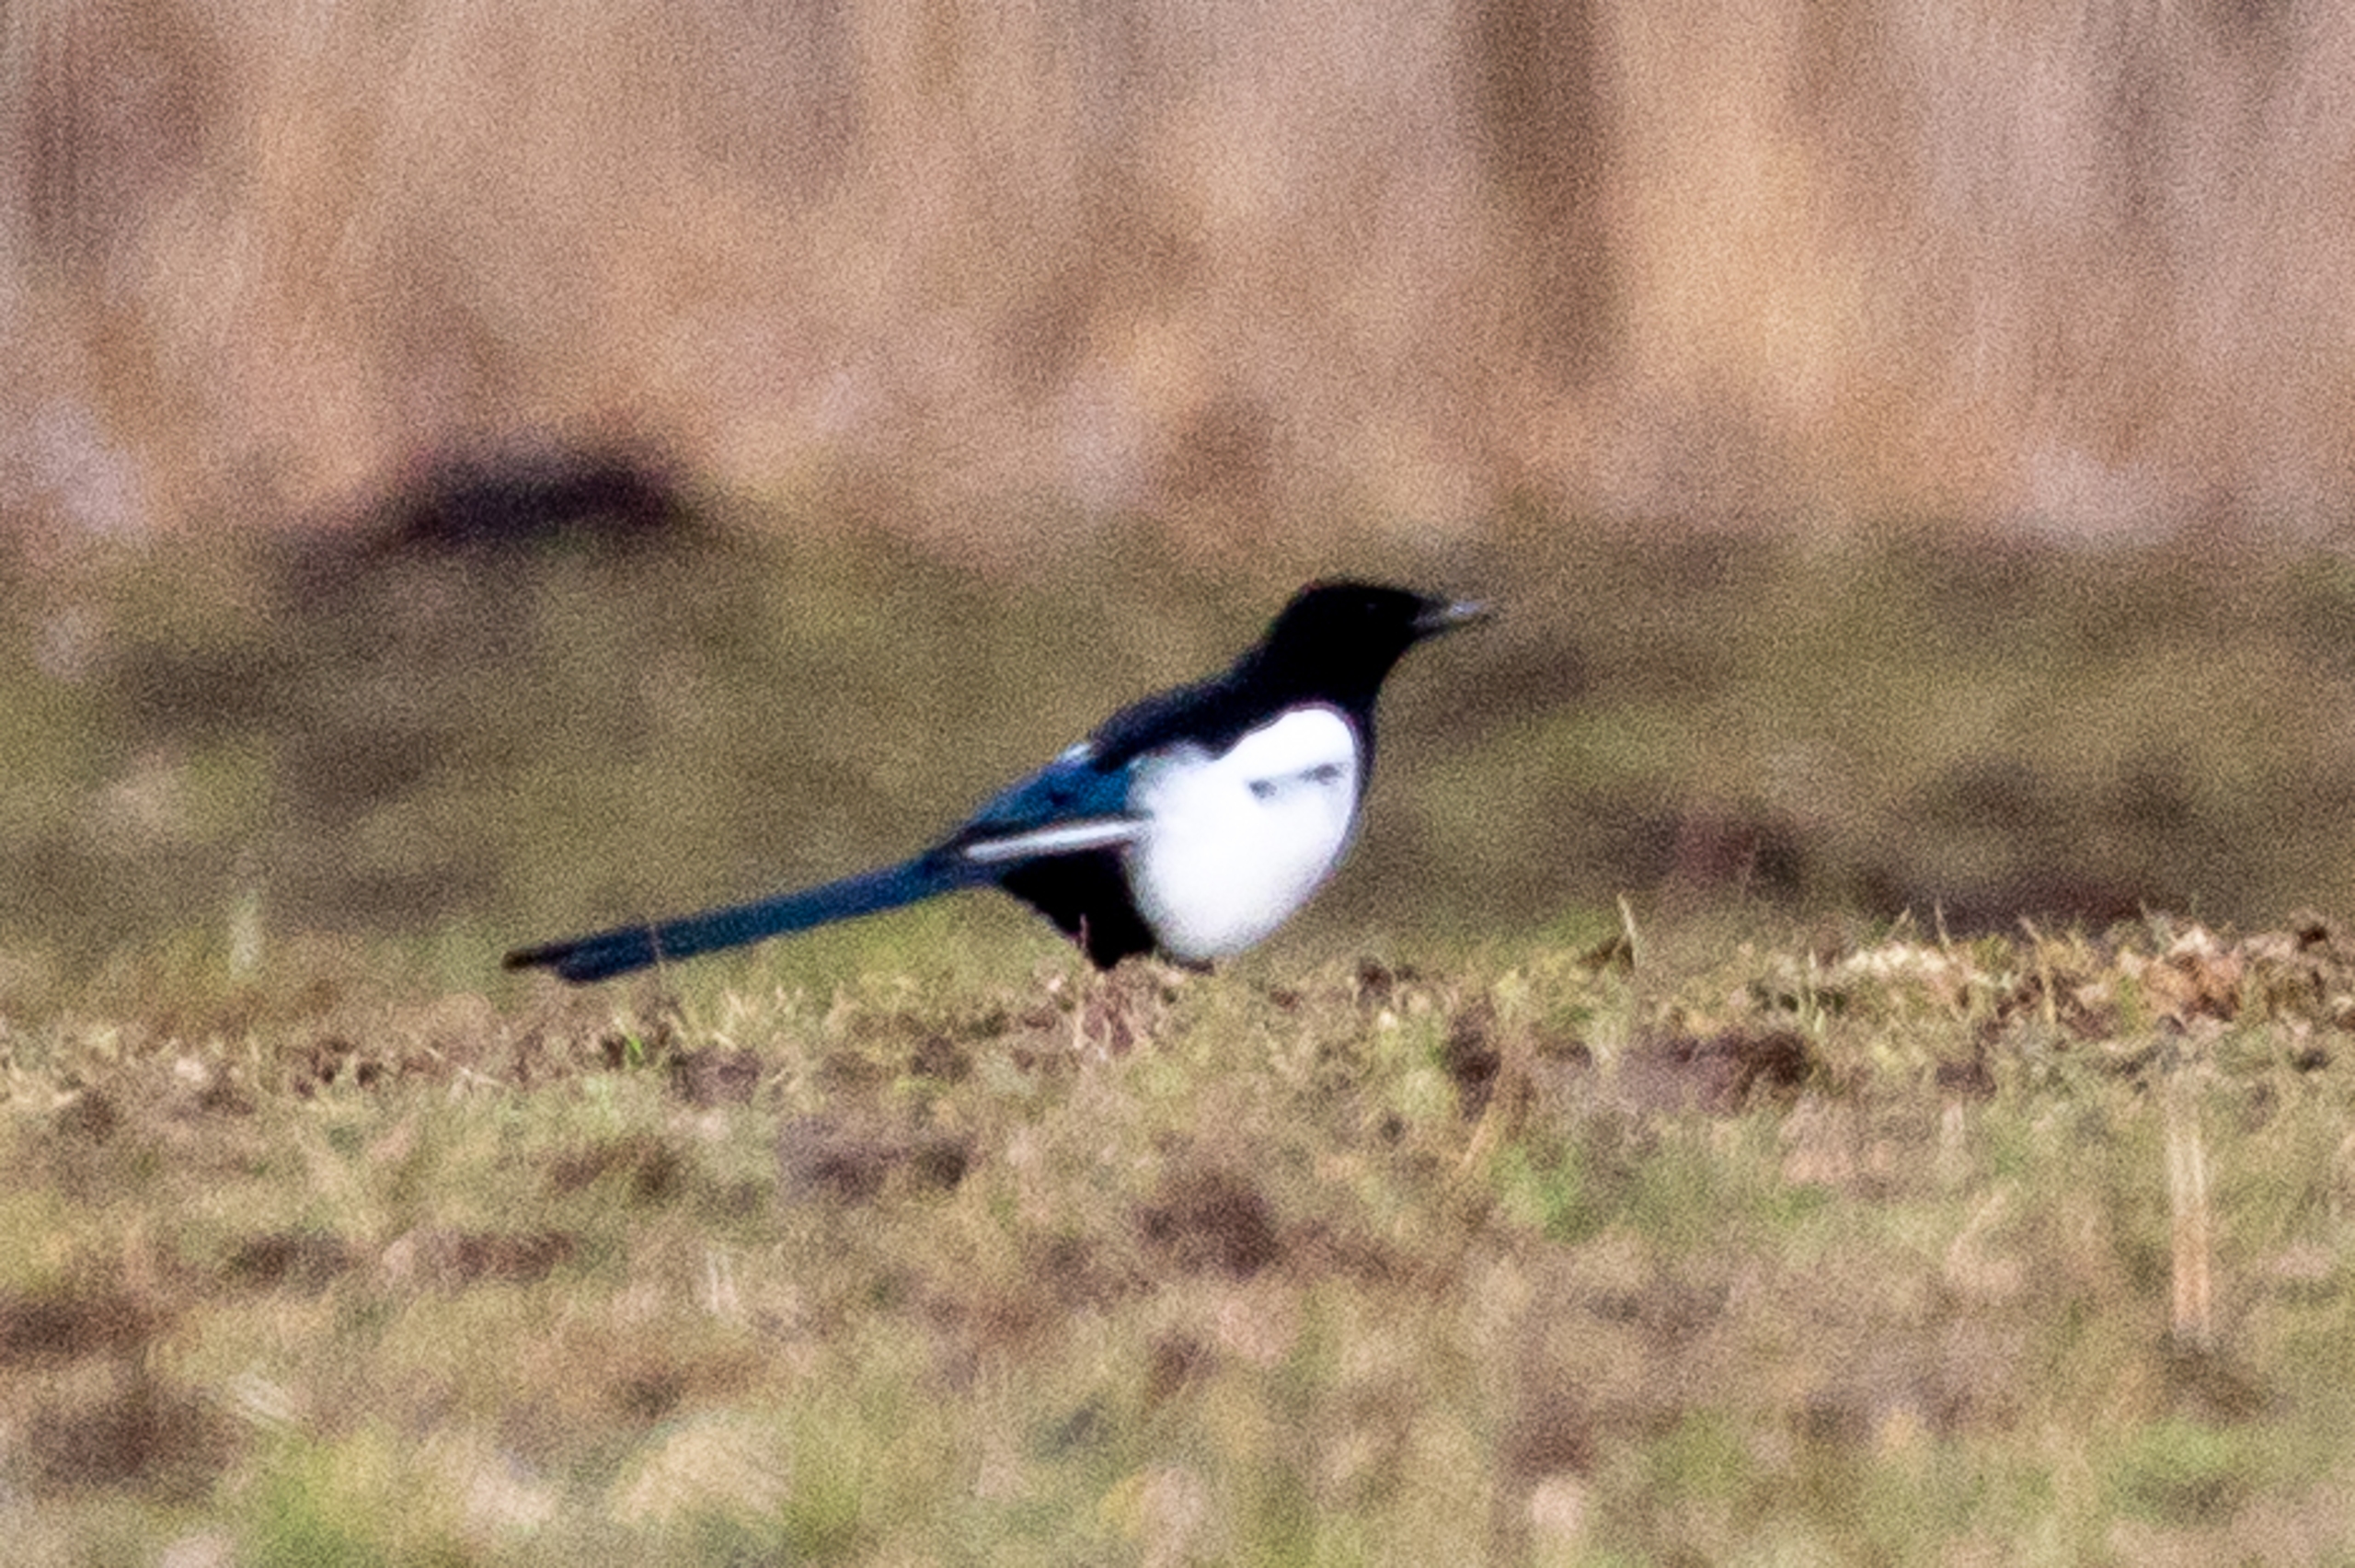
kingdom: Animalia
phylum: Chordata
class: Aves
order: Passeriformes
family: Corvidae
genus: Pica
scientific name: Pica pica
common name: Husskade
